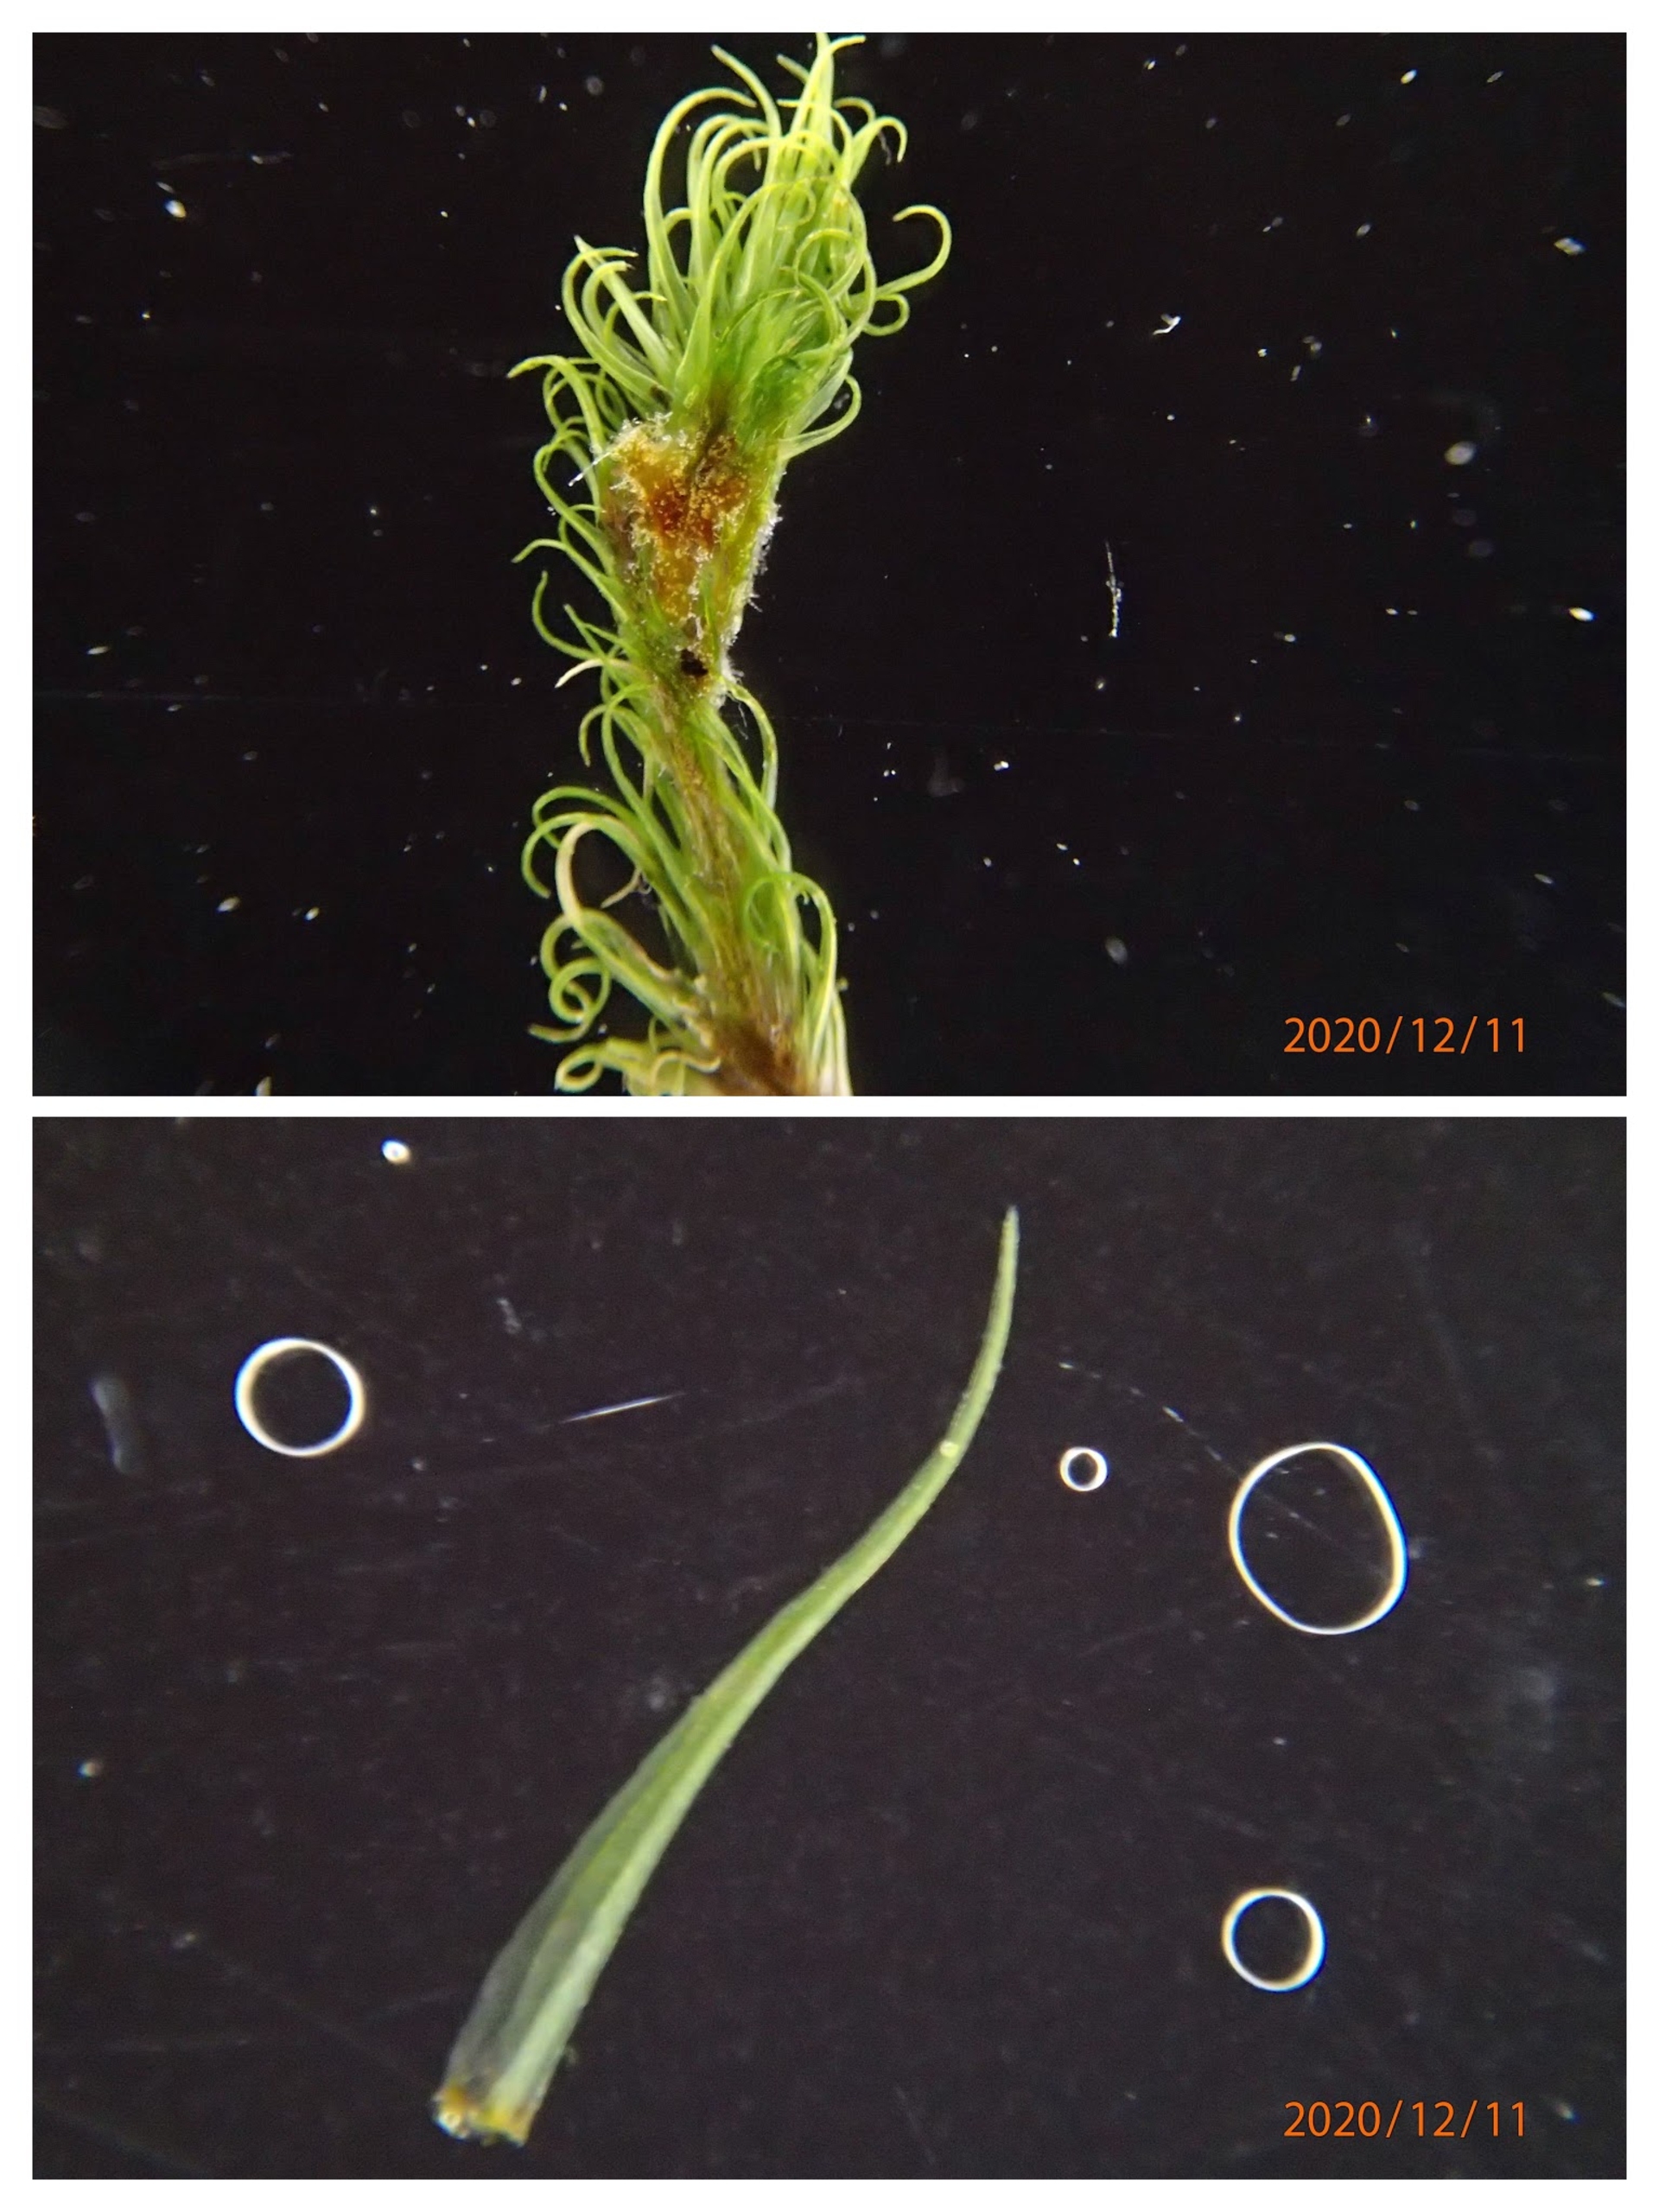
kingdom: Plantae
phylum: Bryophyta
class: Bryopsida
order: Dicranales
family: Dicranaceae
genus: Orthodicranum
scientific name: Orthodicranum montanum
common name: Tæt tyndvinge
